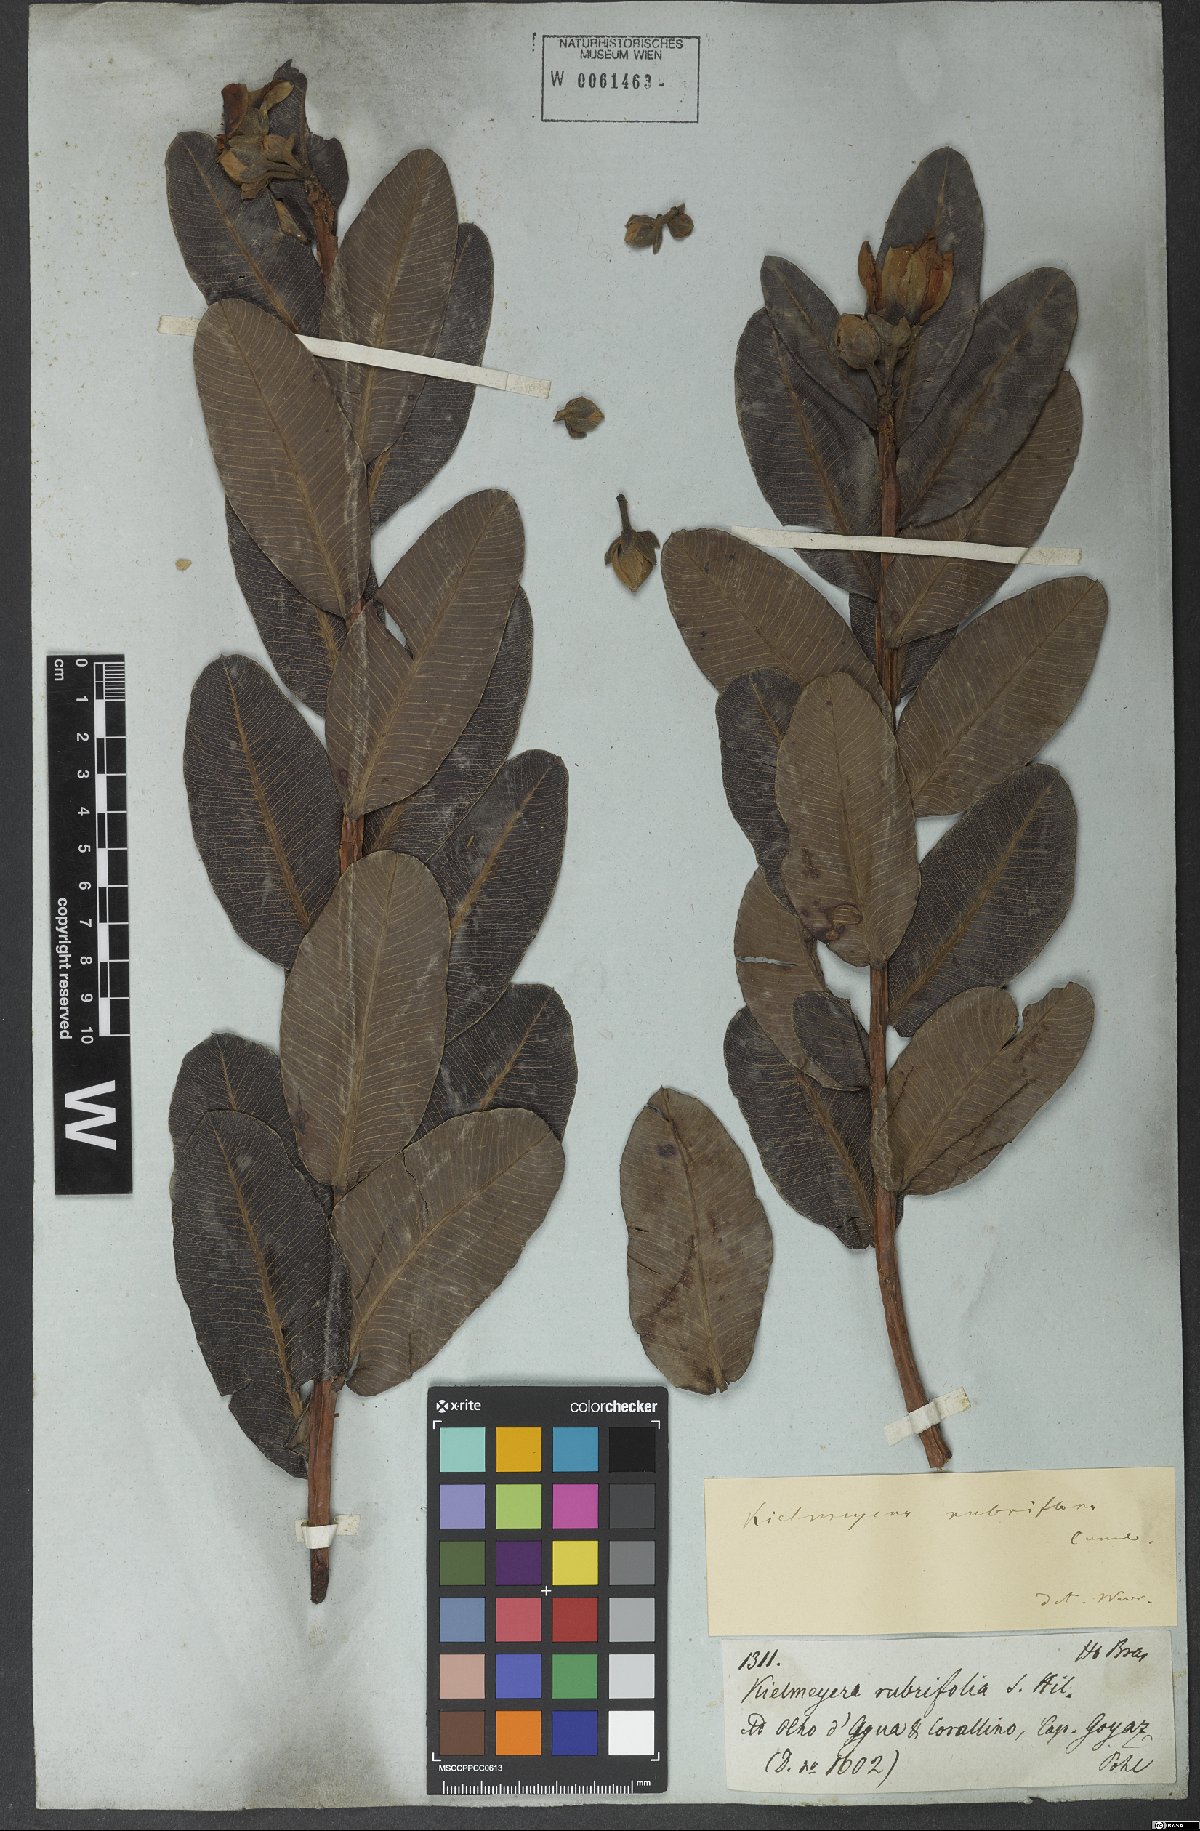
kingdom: Plantae
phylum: Tracheophyta
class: Magnoliopsida
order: Malpighiales
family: Calophyllaceae
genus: Kielmeyera
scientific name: Kielmeyera rubriflora
